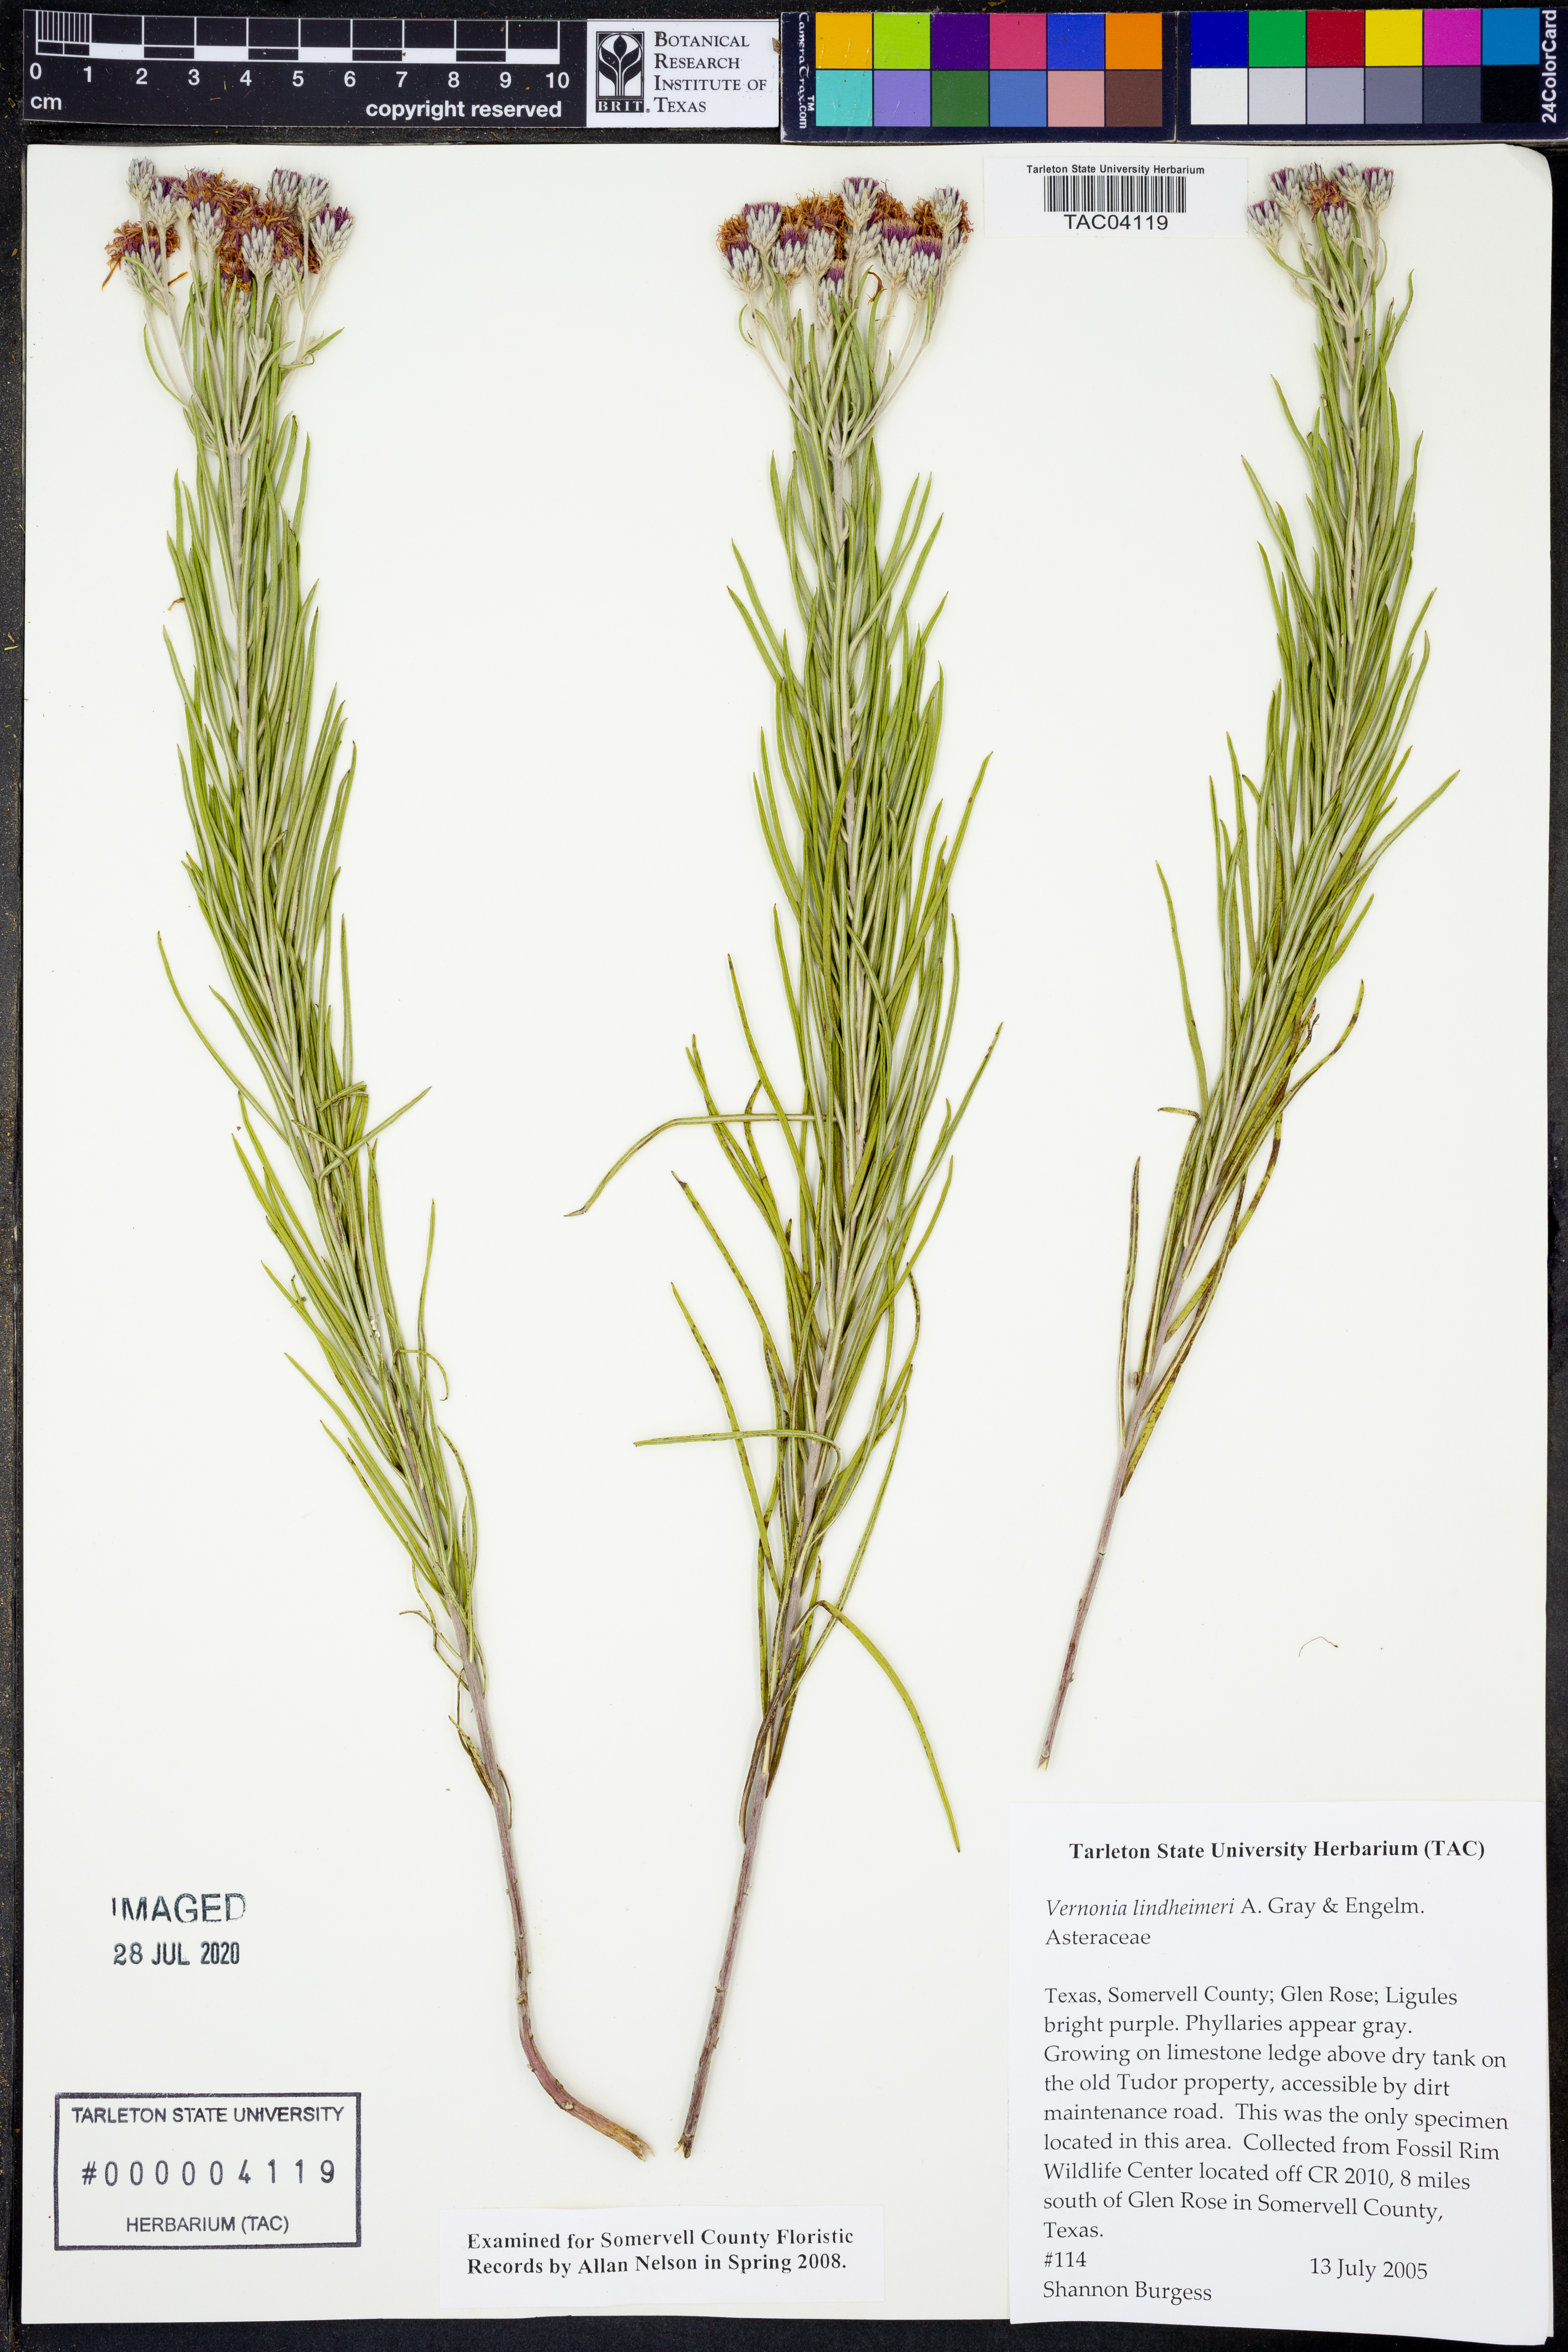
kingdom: Plantae
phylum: Tracheophyta
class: Magnoliopsida
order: Asterales
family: Asteraceae
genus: Vernonia
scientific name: Vernonia lindheimeri
